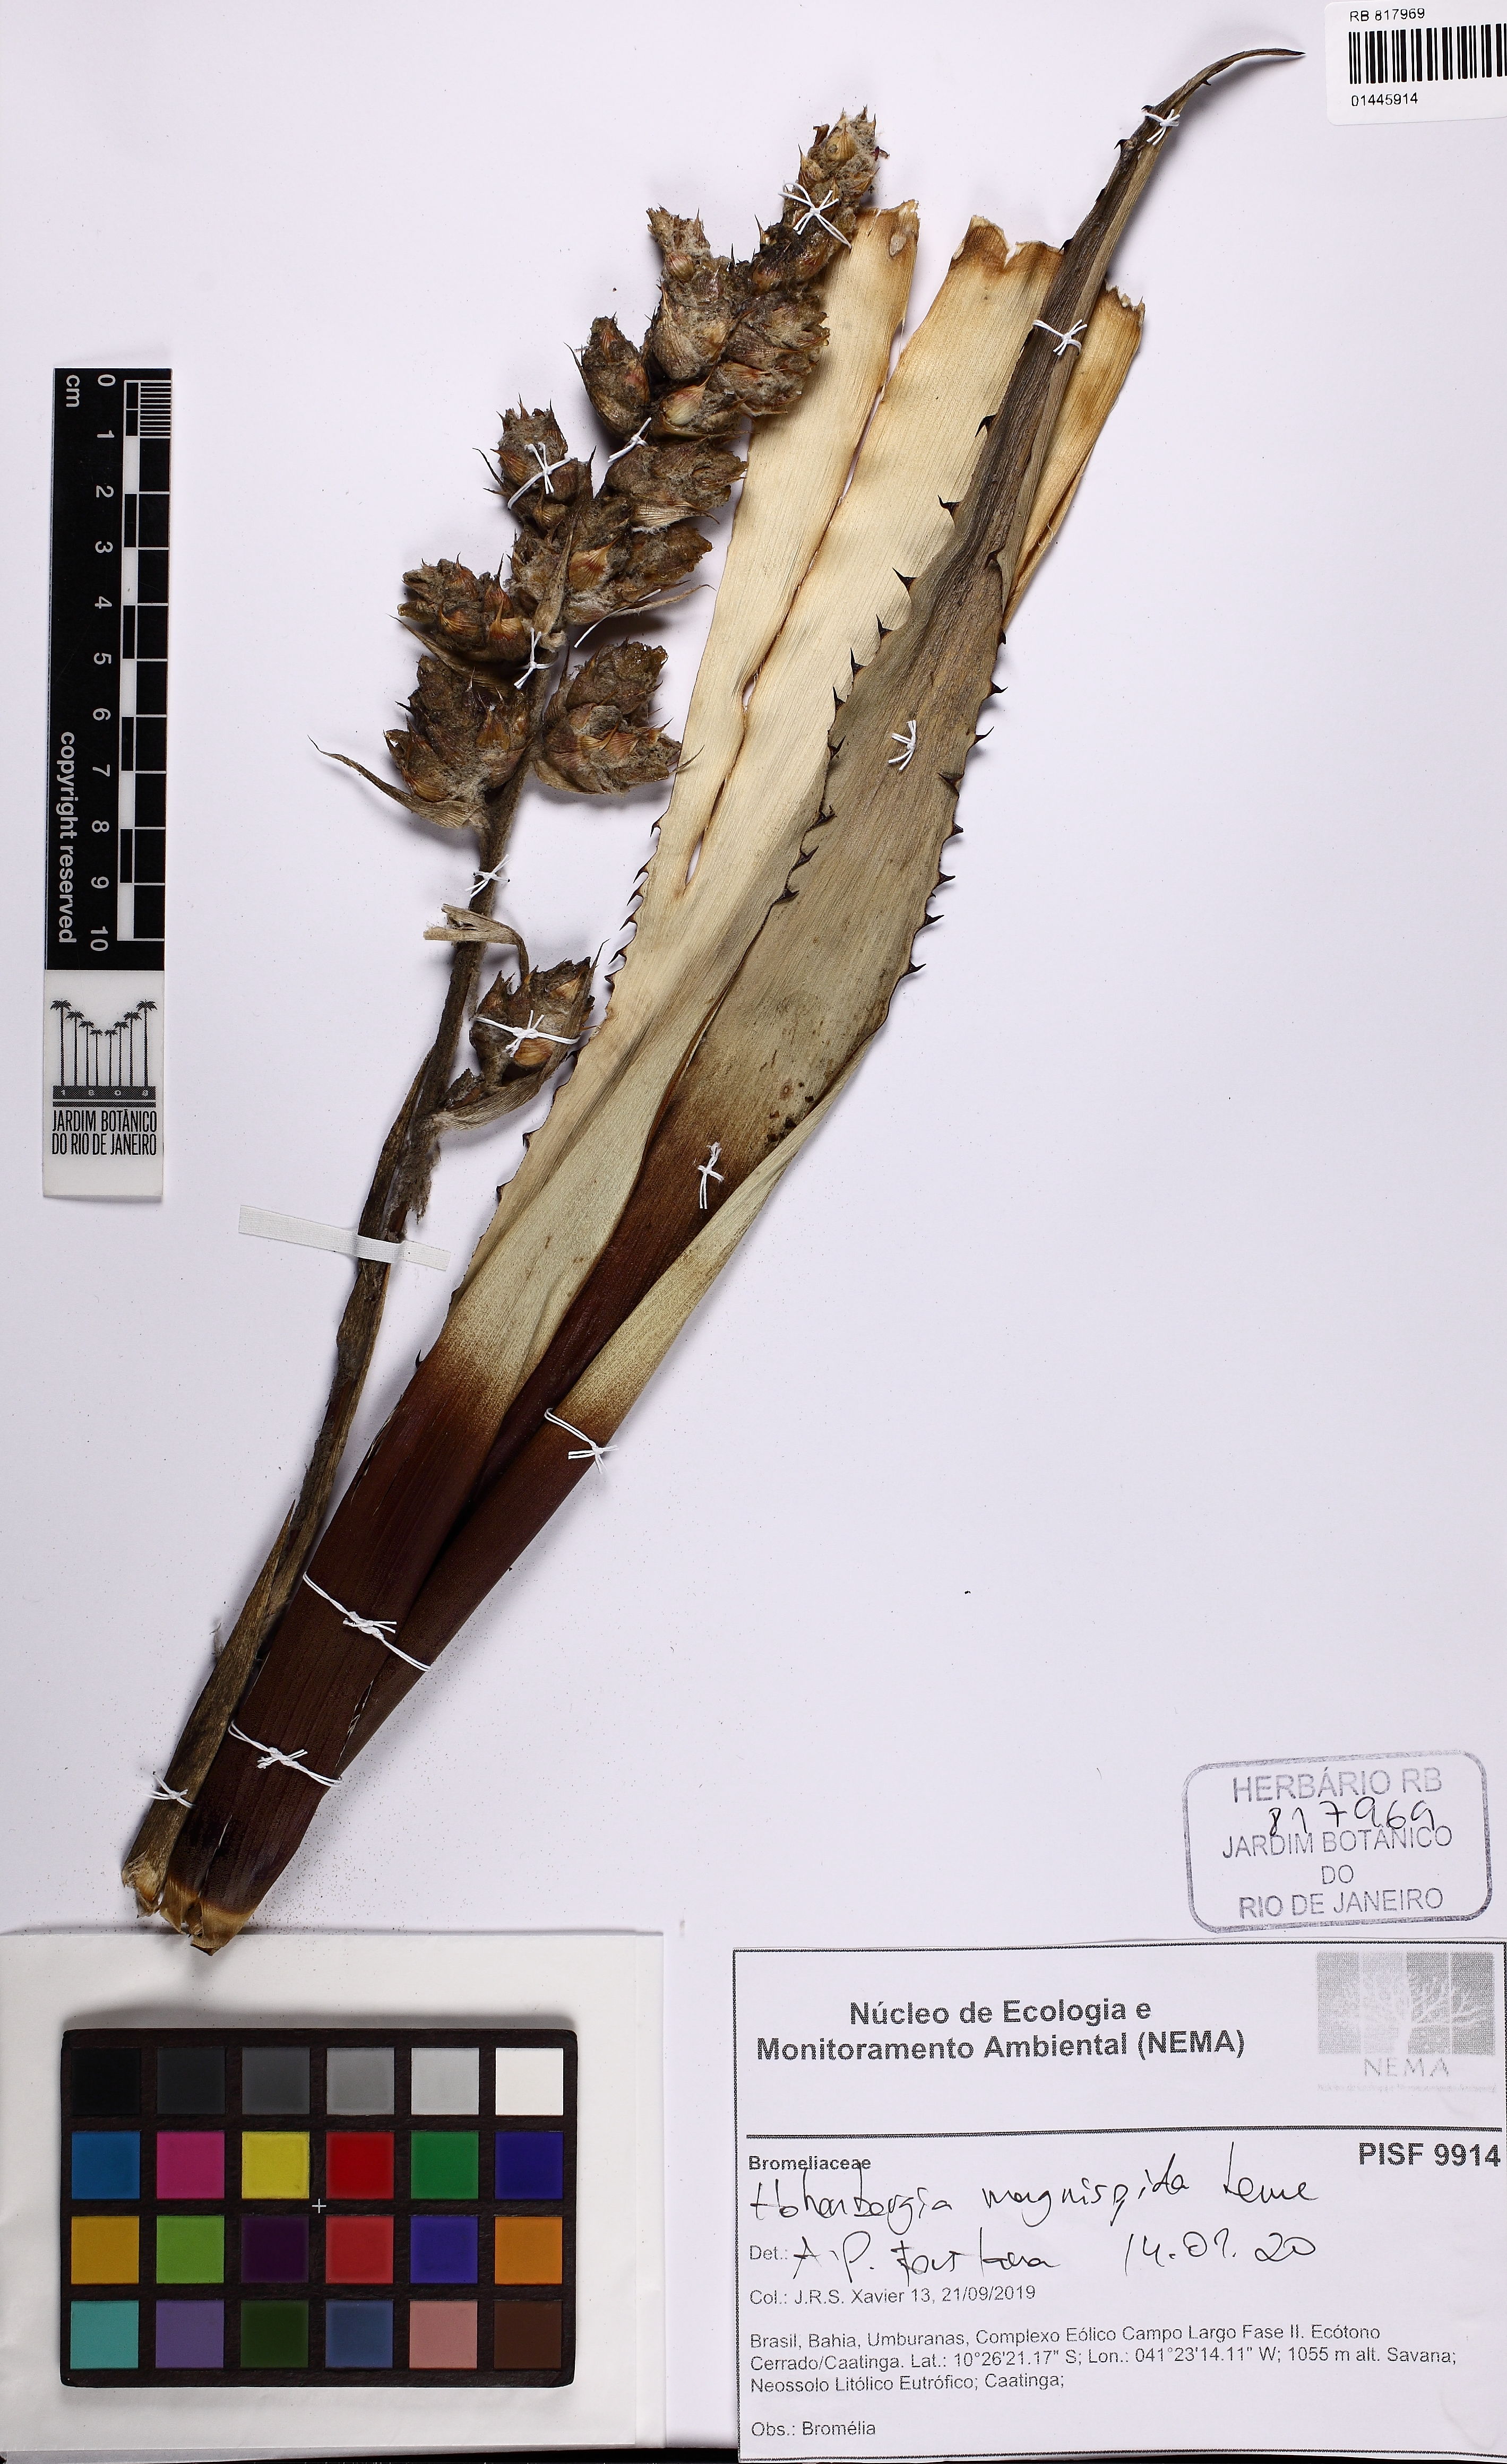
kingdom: Plantae
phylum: Tracheophyta
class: Liliopsida
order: Poales
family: Bromeliaceae
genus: Hohenbergia
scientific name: Hohenbergia magnispina
